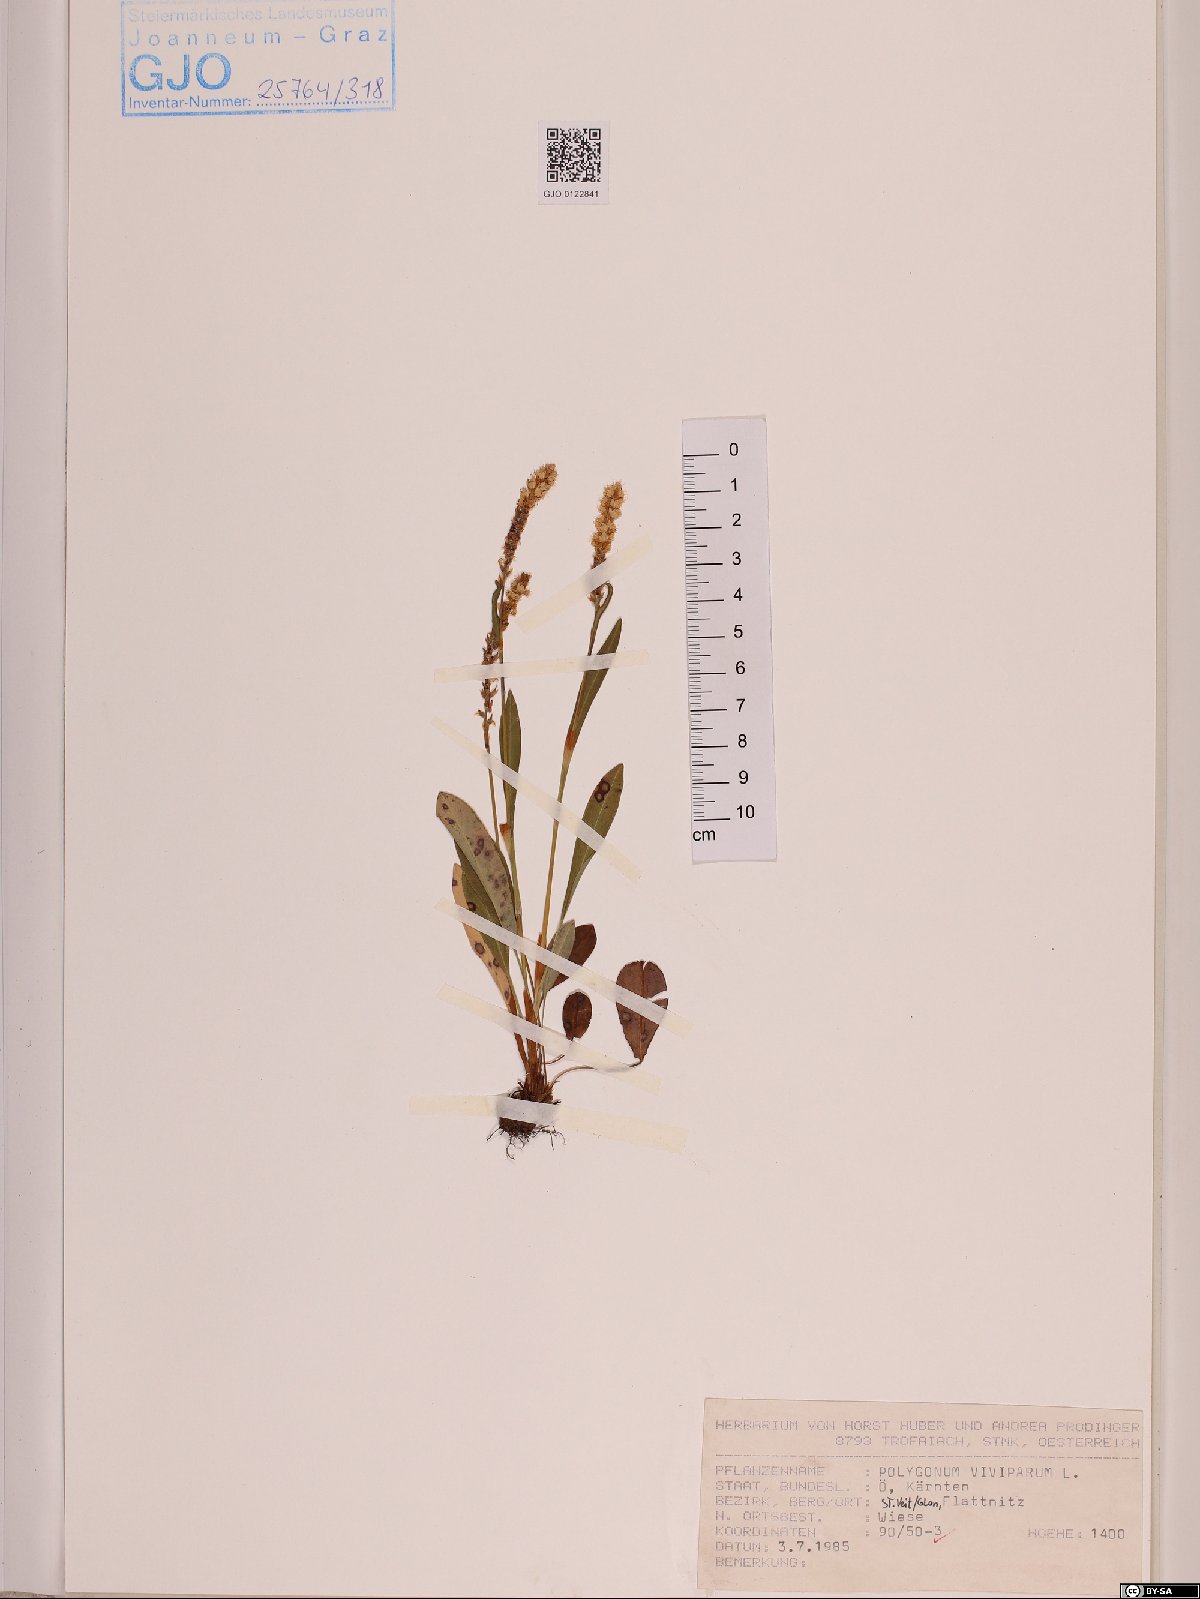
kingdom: Plantae
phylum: Tracheophyta
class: Magnoliopsida
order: Caryophyllales
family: Polygonaceae
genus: Bistorta
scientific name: Bistorta vivipara
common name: Alpine bistort
